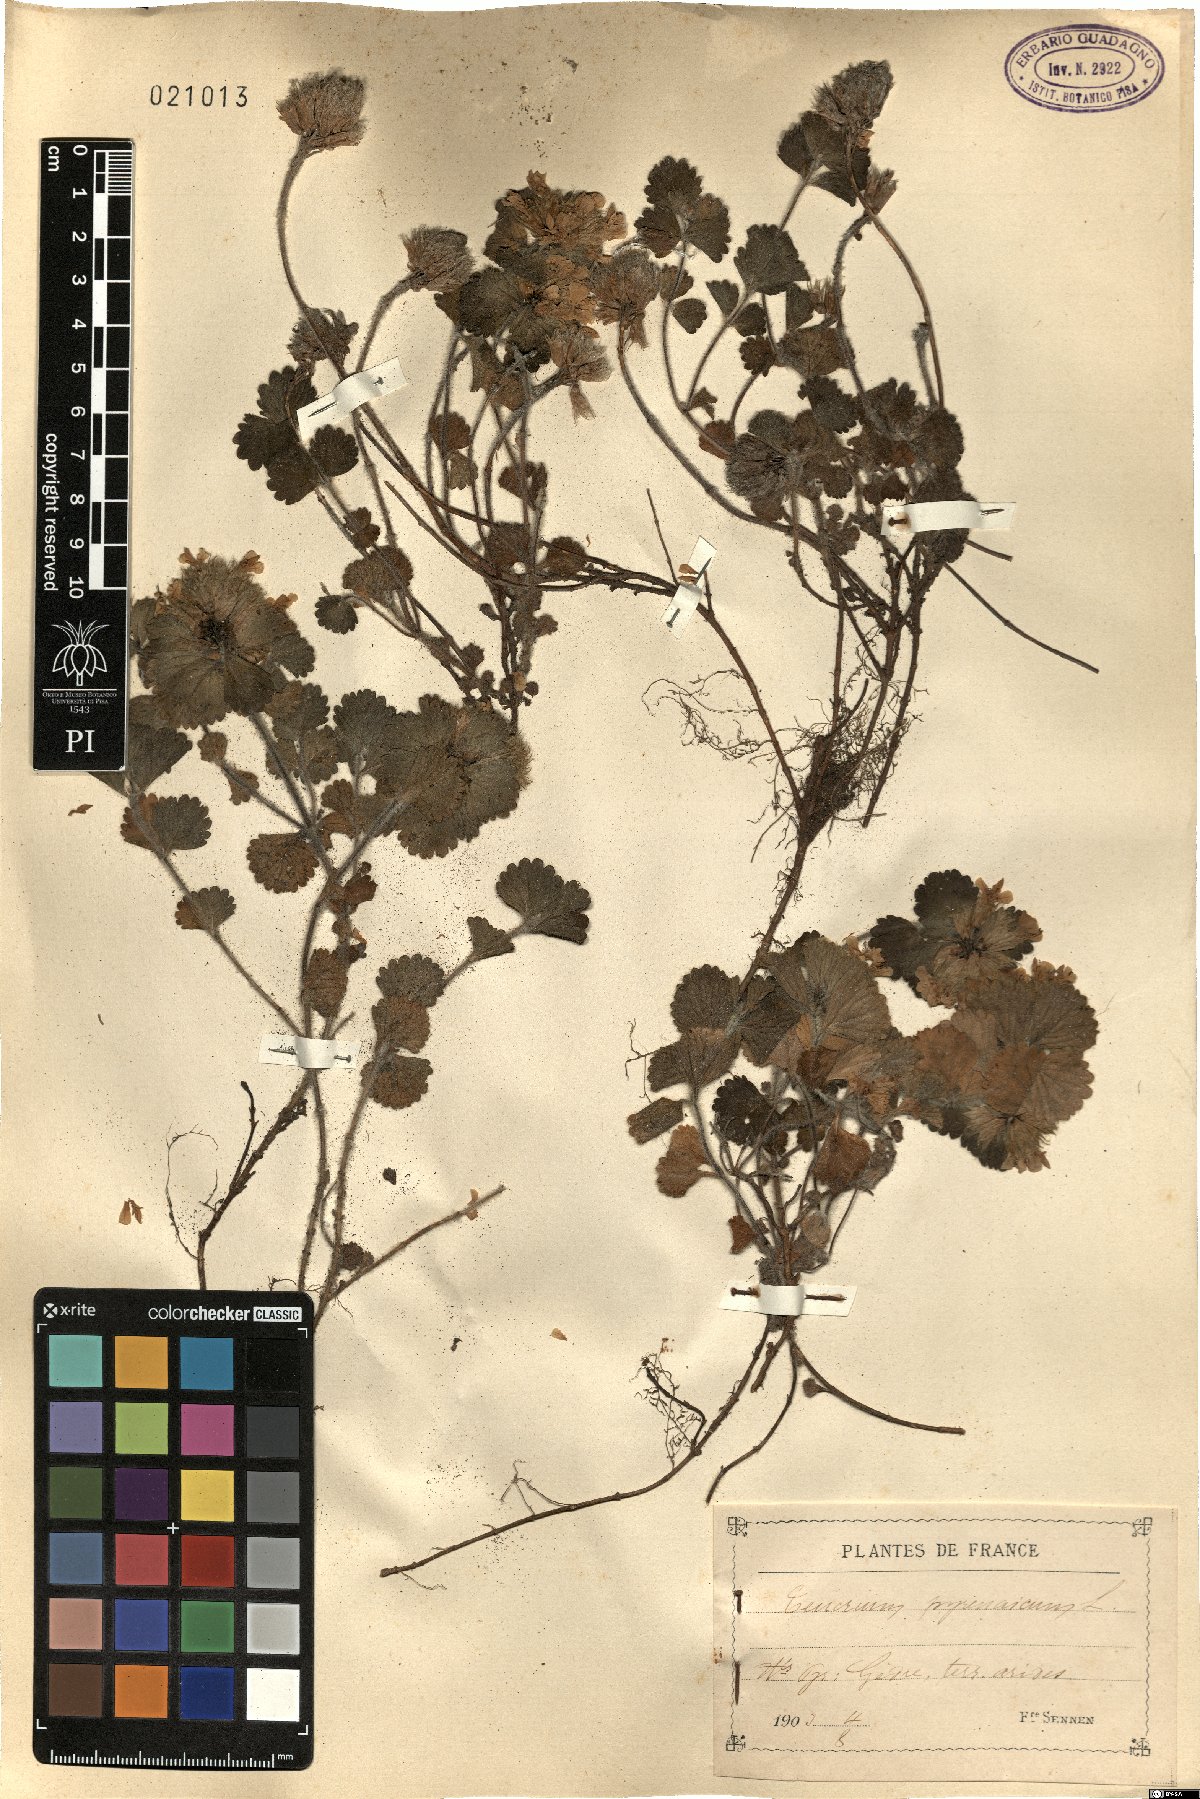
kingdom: Plantae
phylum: Tracheophyta
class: Magnoliopsida
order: Lamiales
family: Lamiaceae
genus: Teucrium
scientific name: Teucrium pyrenaicum
